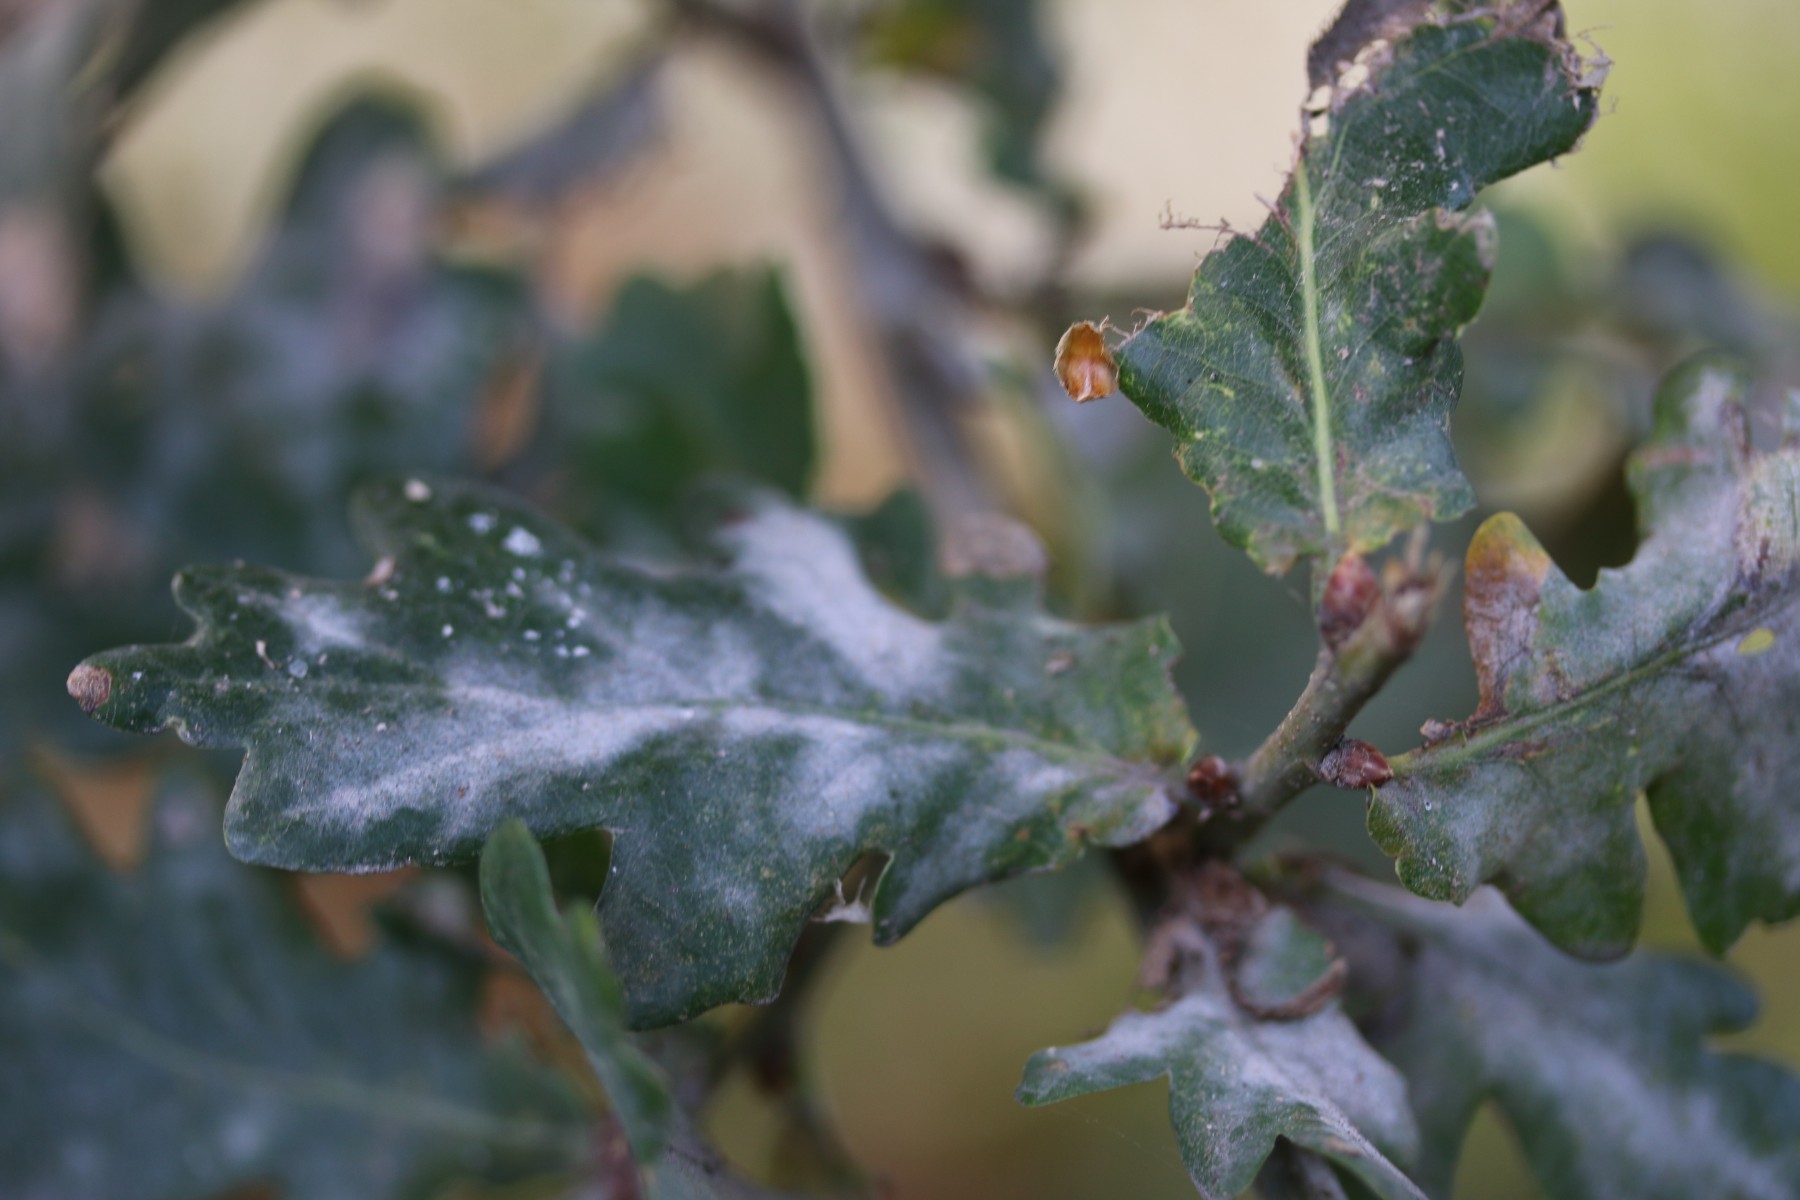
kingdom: Fungi
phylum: Ascomycota
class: Leotiomycetes
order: Helotiales
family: Erysiphaceae
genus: Erysiphe
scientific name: Erysiphe alphitoides
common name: ege-meldug
